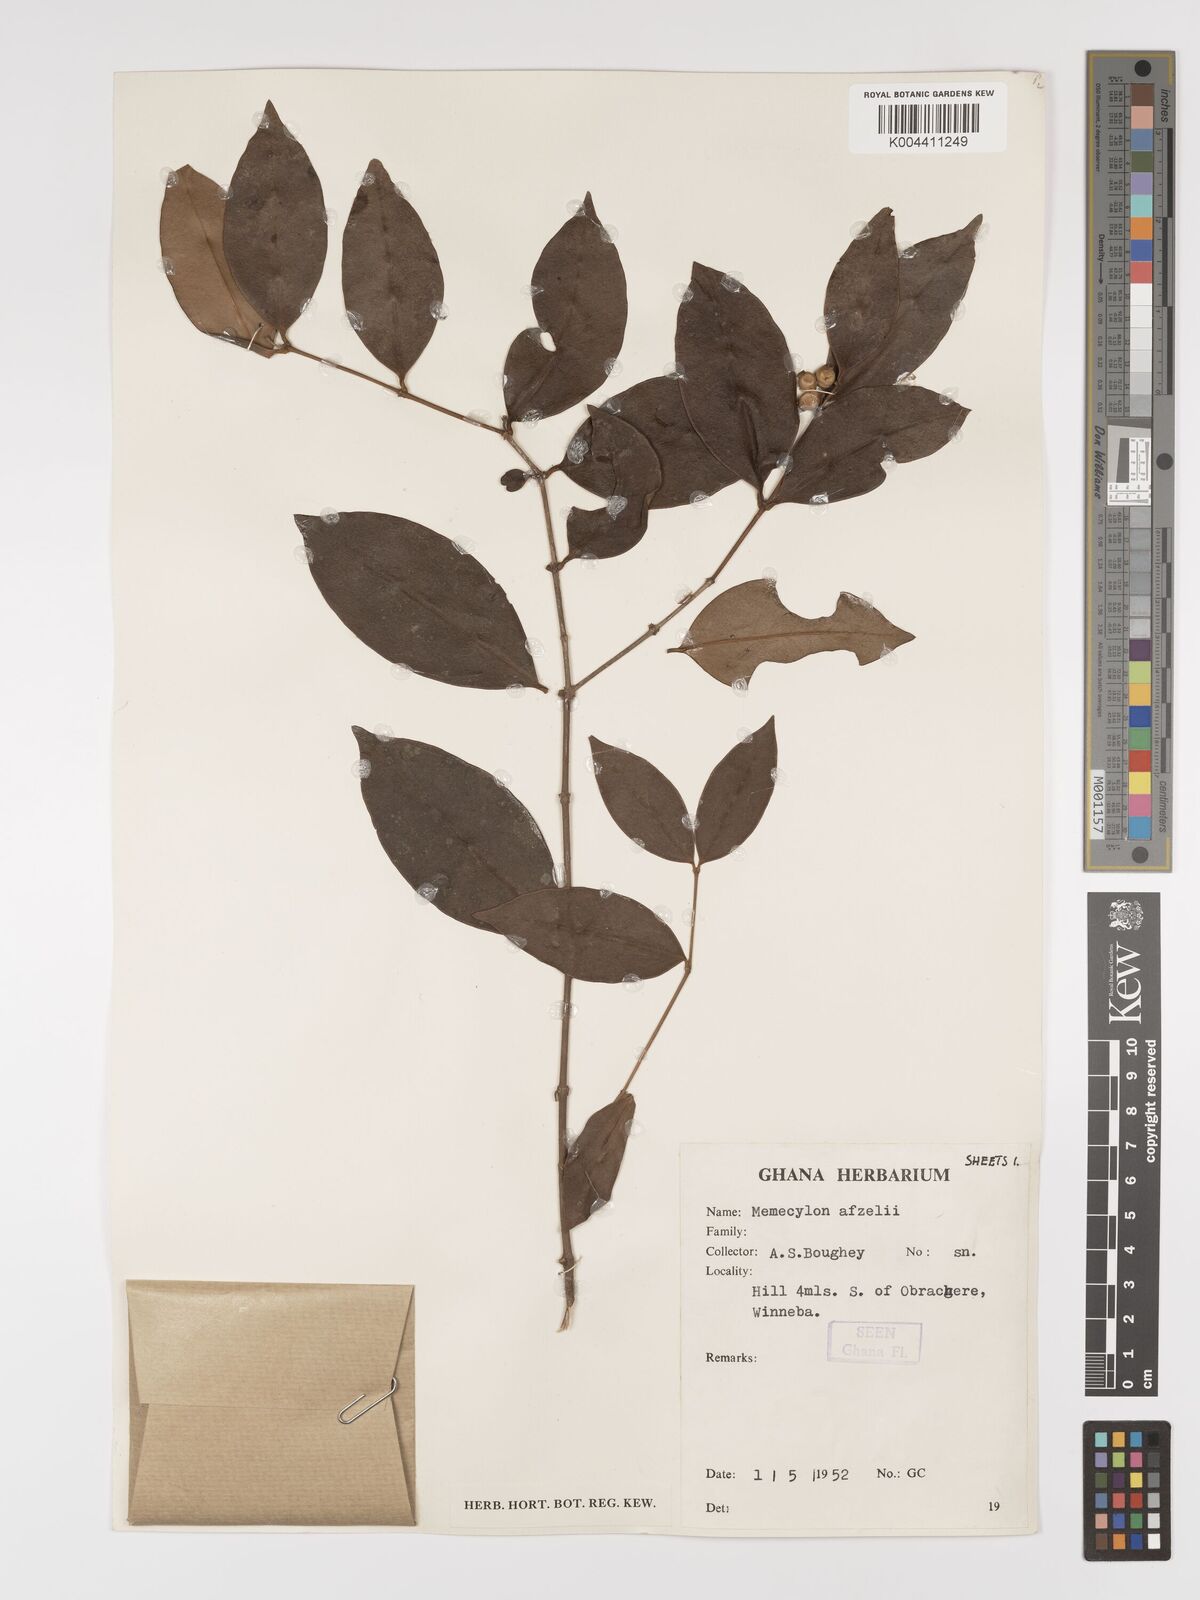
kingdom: Plantae
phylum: Tracheophyta
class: Magnoliopsida
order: Myrtales
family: Melastomataceae
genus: Memecylon
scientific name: Memecylon afzelii
